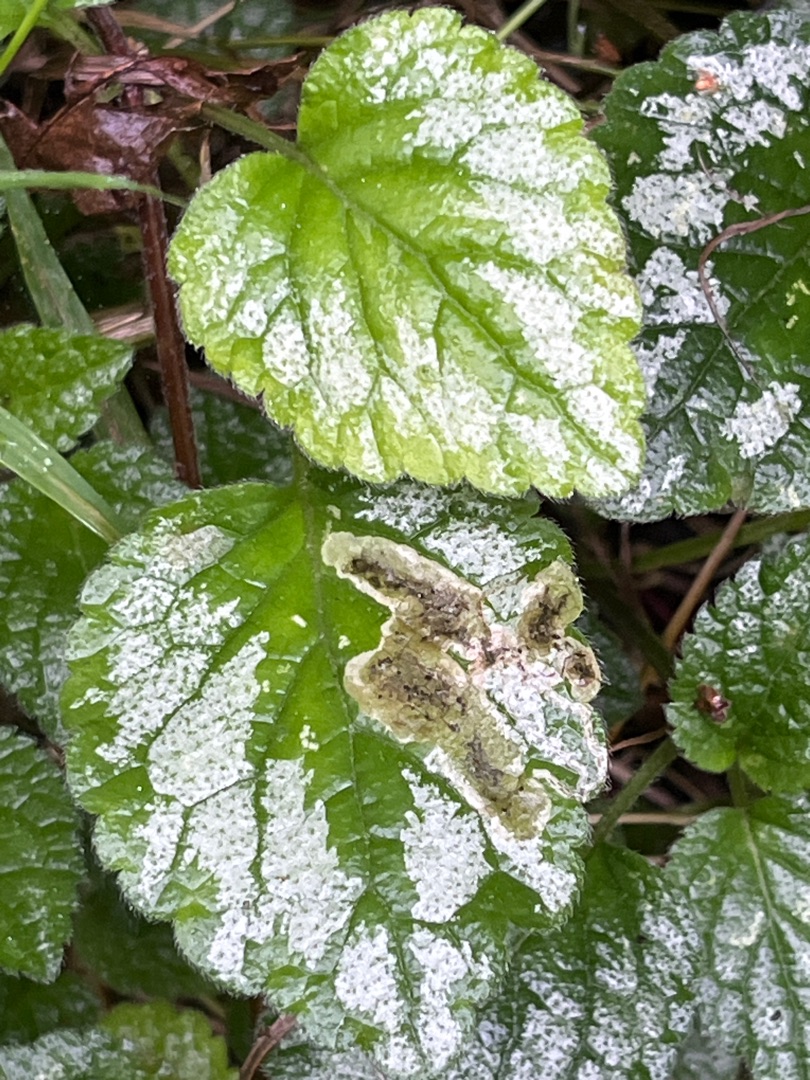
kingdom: Plantae
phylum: Tracheophyta
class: Magnoliopsida
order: Lamiales
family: Lamiaceae
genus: Lamium
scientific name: Lamium galeobdolon
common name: Have-guldnælde
